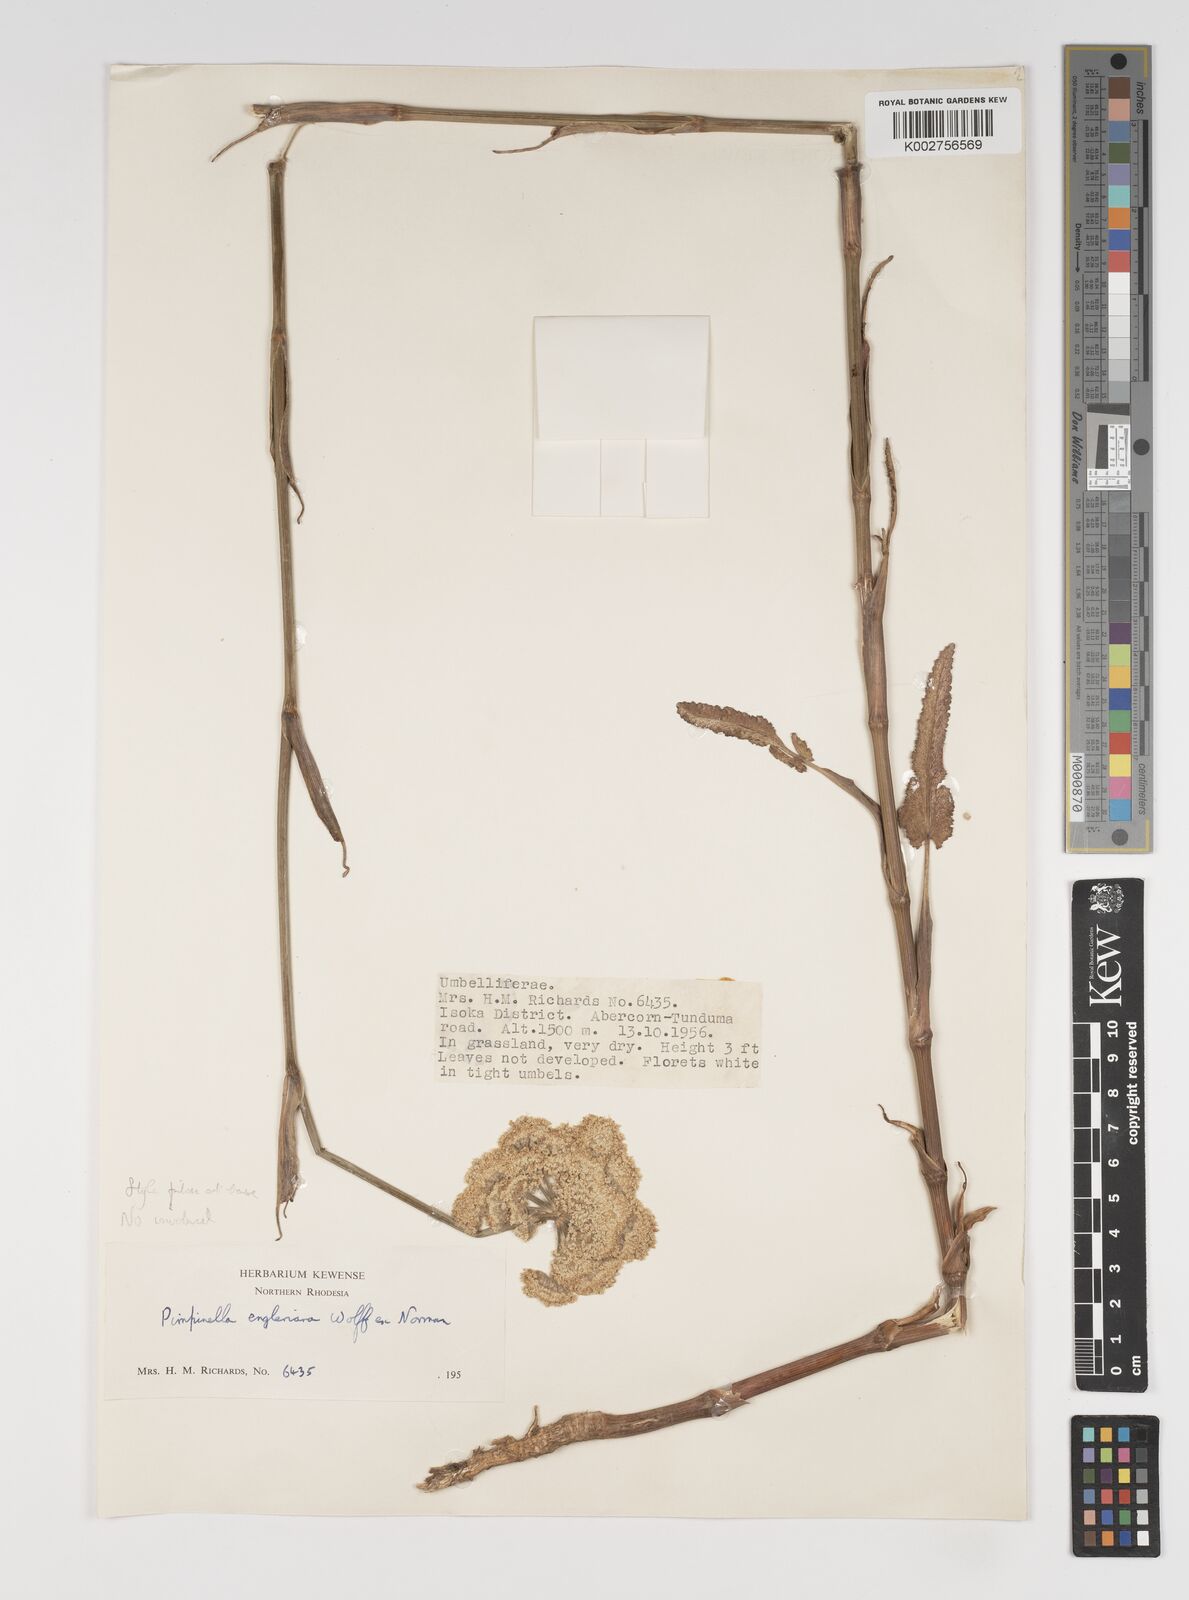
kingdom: Plantae
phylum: Tracheophyta
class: Magnoliopsida
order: Apiales
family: Apiaceae
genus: Pimpinella
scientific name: Pimpinella kingdon-wardii
